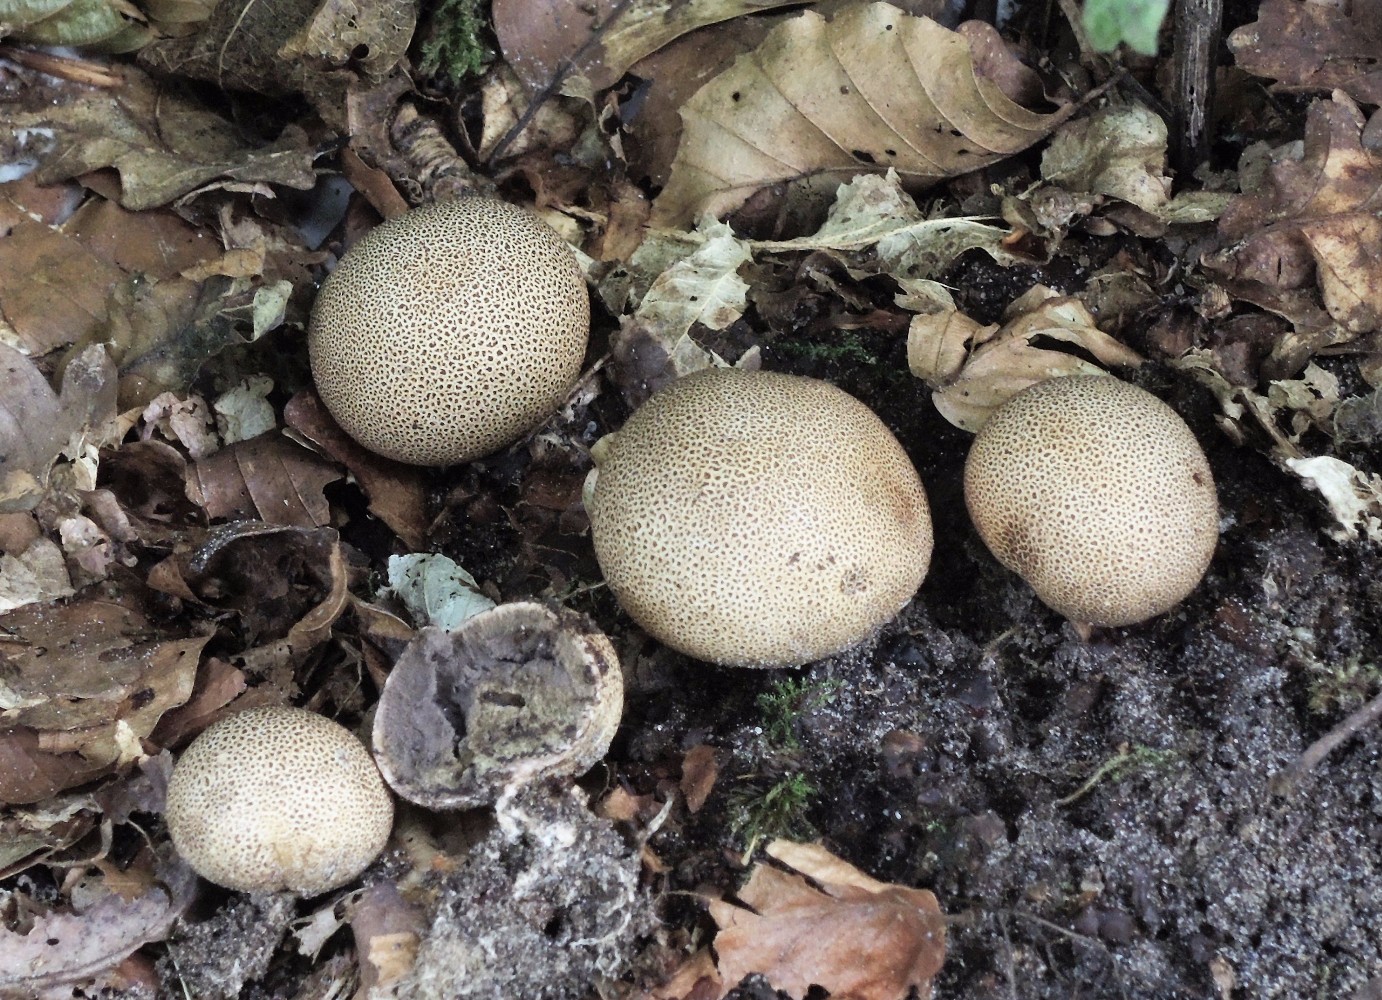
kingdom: Fungi
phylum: Basidiomycota
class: Agaricomycetes
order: Boletales
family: Sclerodermataceae
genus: Scleroderma
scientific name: Scleroderma areolatum
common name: plettet bruskbold
